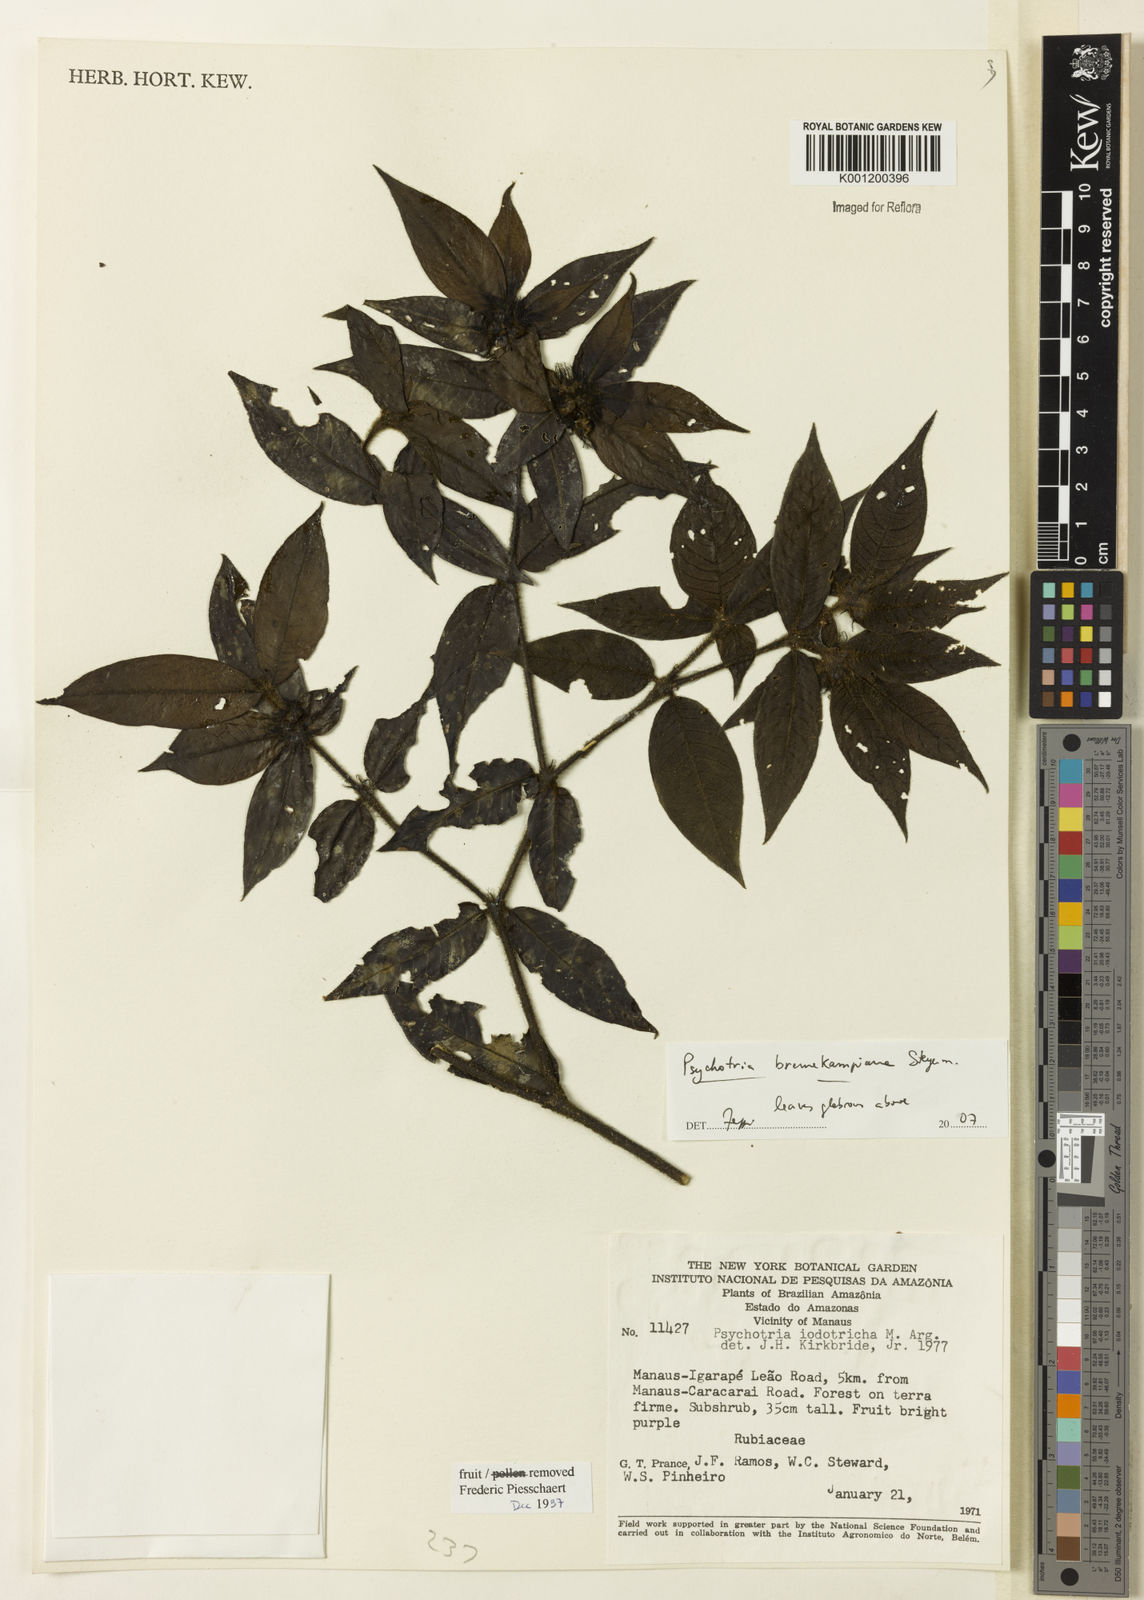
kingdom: Plantae
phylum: Tracheophyta
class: Magnoliopsida
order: Gentianales
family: Rubiaceae
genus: Palicourea
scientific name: Palicourea hirta
